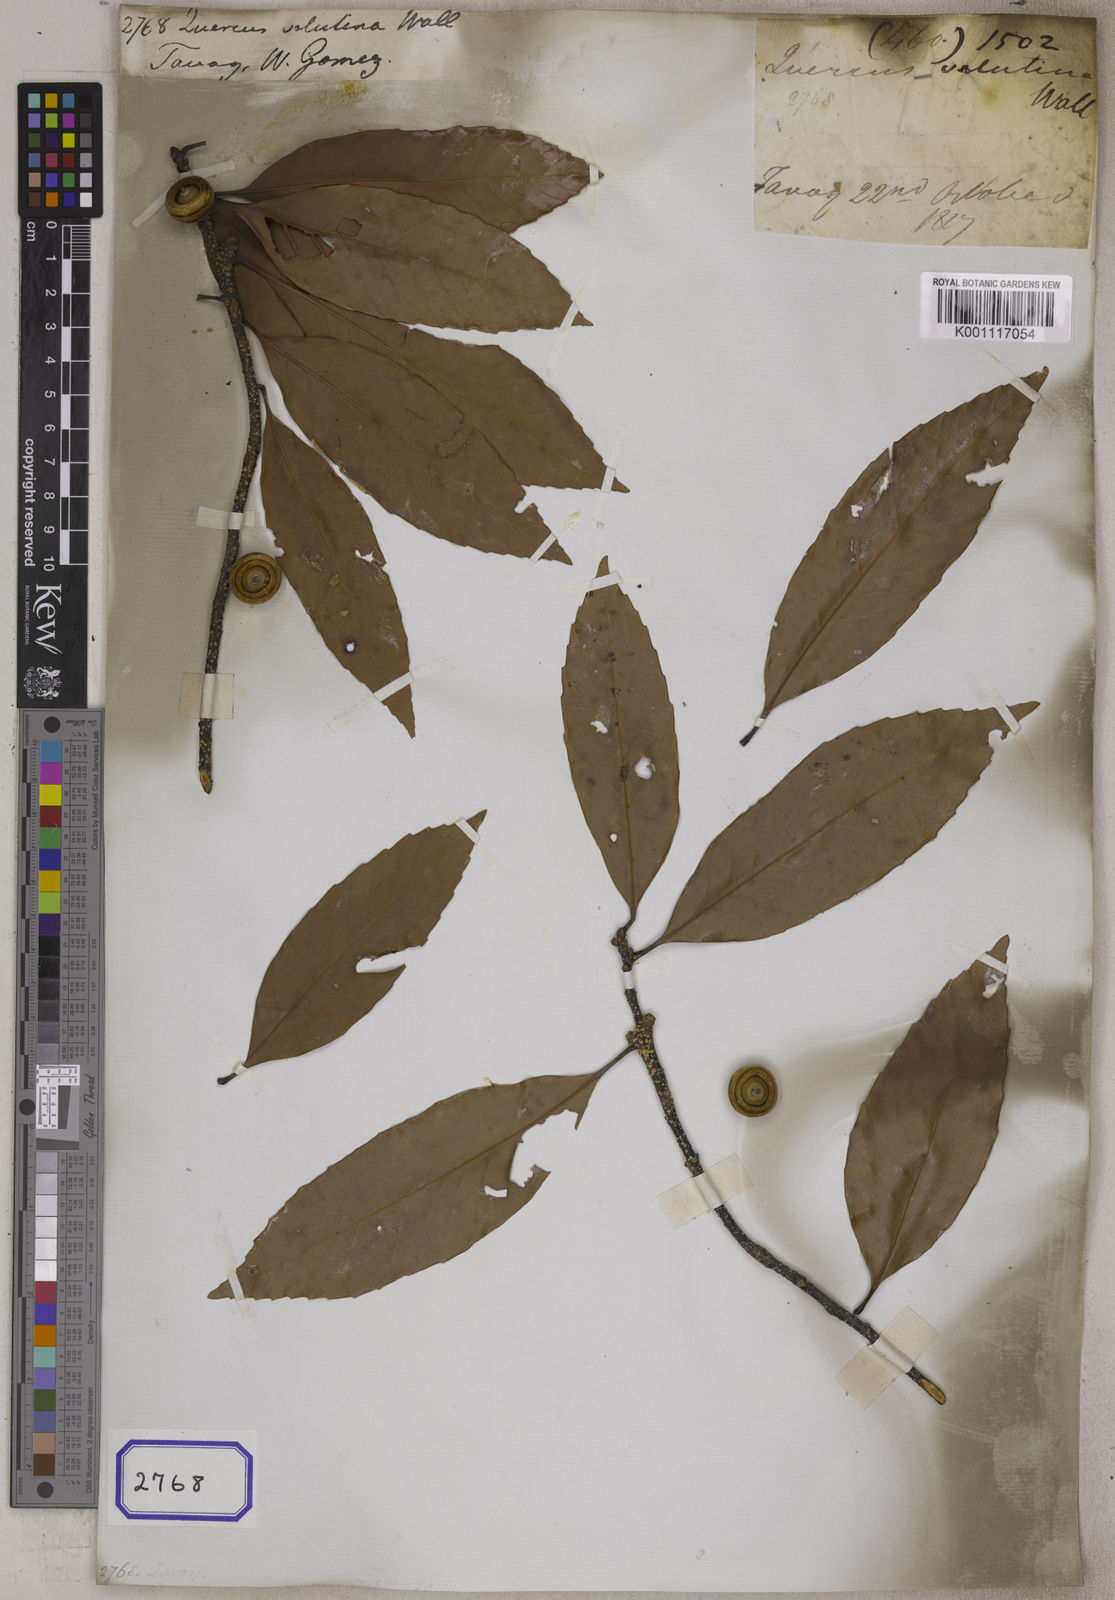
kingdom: Plantae
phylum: Tracheophyta
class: Magnoliopsida
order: Fagales
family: Fagaceae
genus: Quercus
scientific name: Quercus
